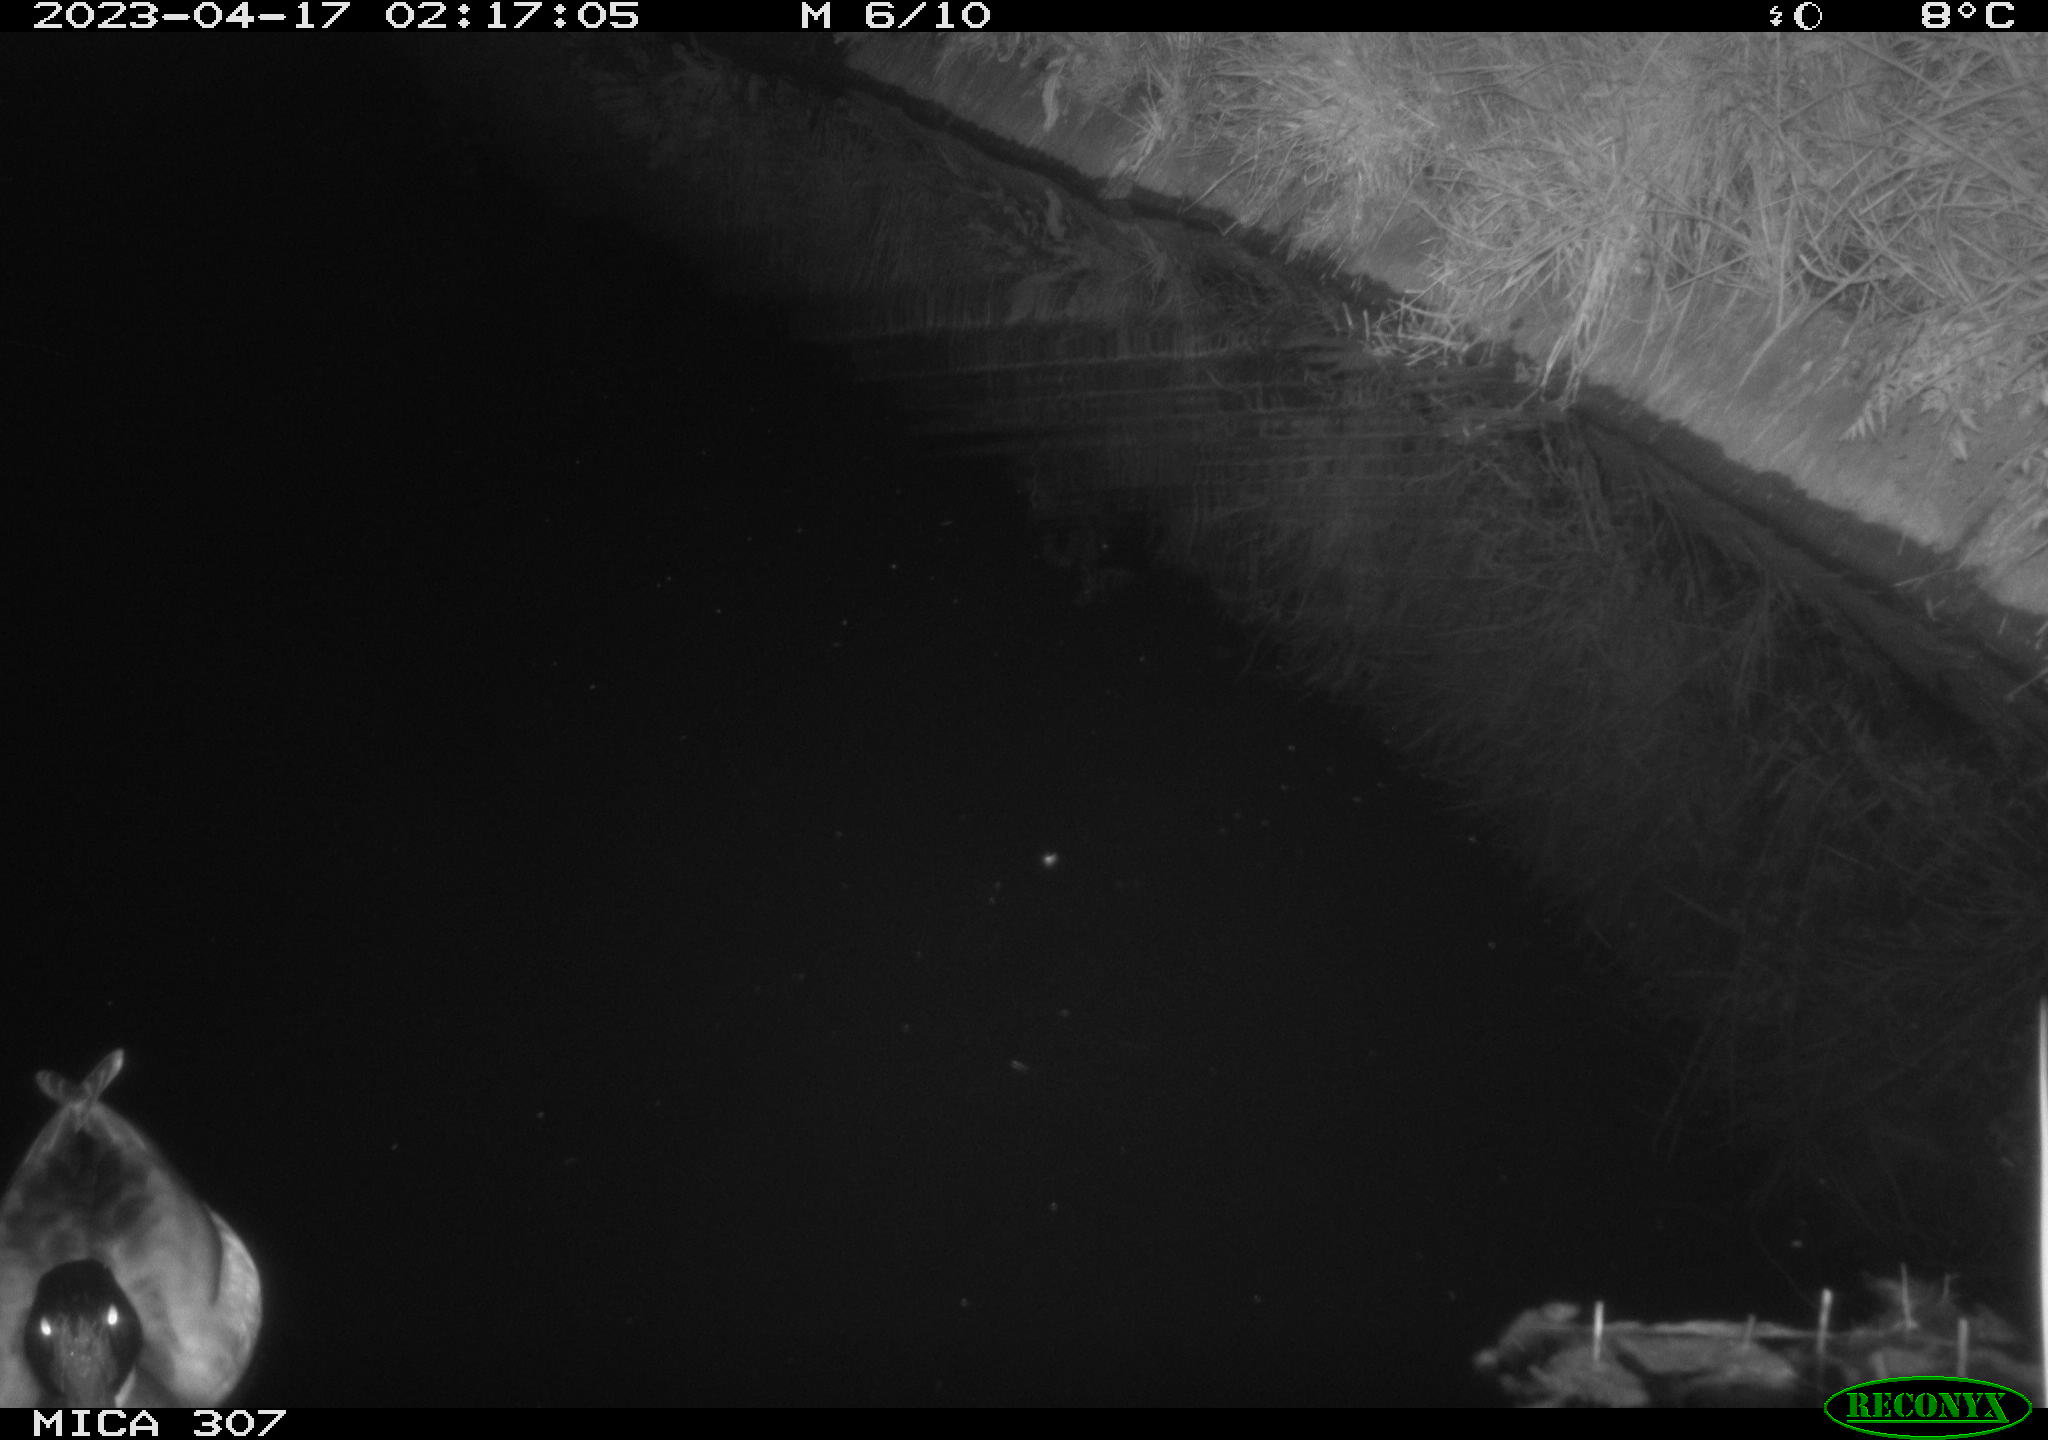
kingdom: Animalia
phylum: Chordata
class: Aves
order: Anseriformes
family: Anatidae
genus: Anas
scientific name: Anas
